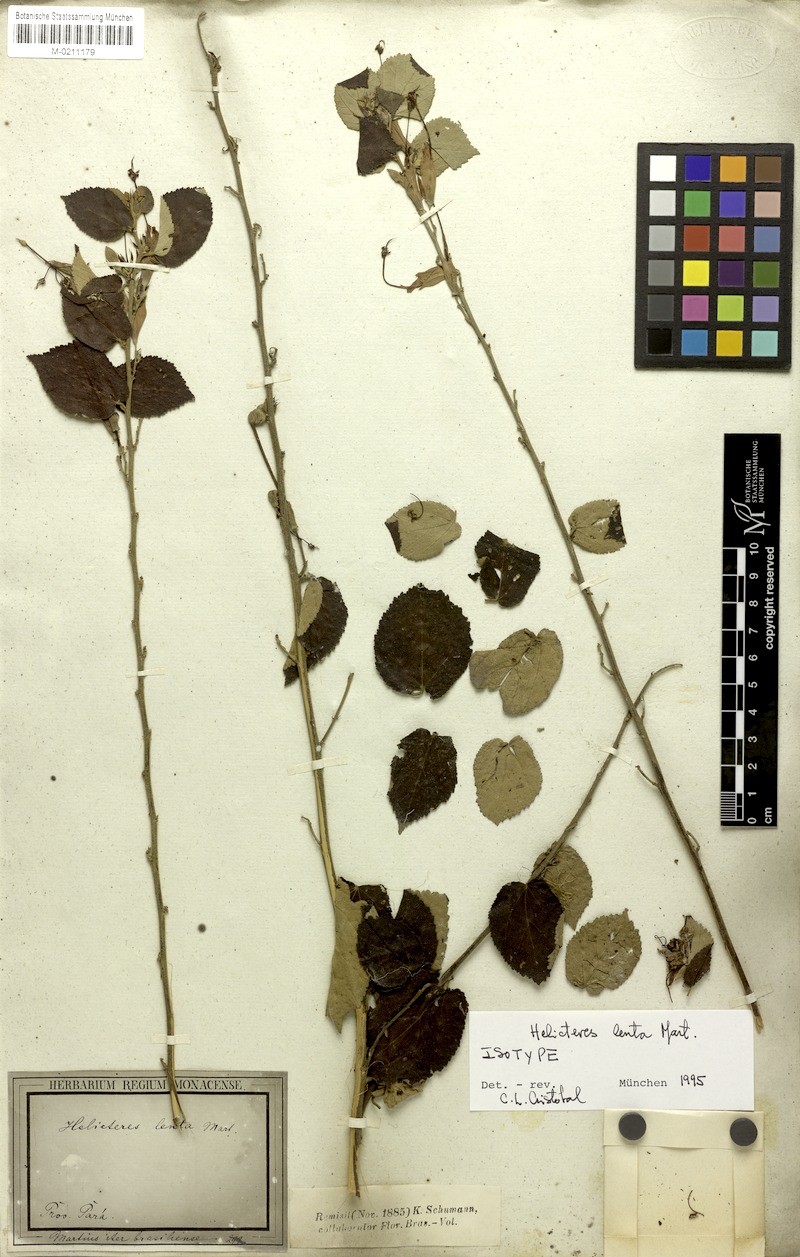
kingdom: Plantae
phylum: Tracheophyta
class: Magnoliopsida
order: Malvales
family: Malvaceae
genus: Helicteres
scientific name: Helicteres lenta
